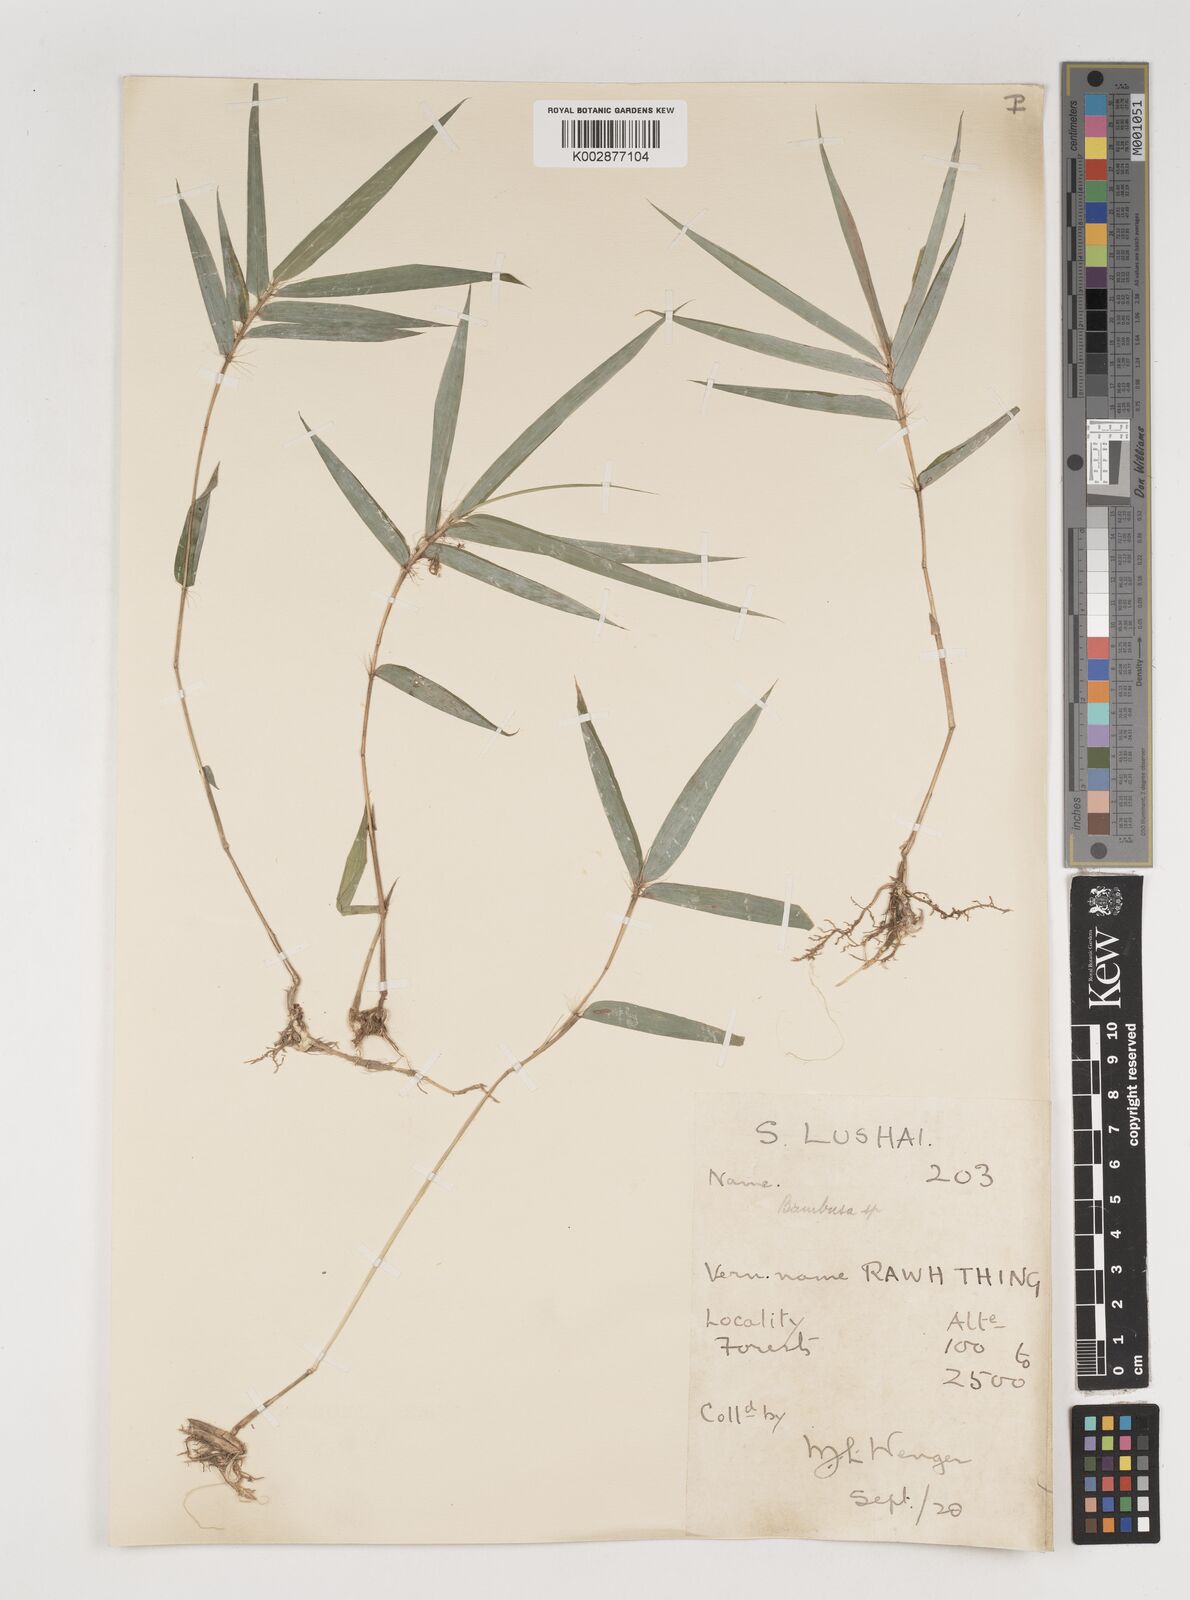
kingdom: Plantae
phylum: Tracheophyta
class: Liliopsida
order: Poales
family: Poaceae
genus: Bambusa
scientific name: Bambusa
